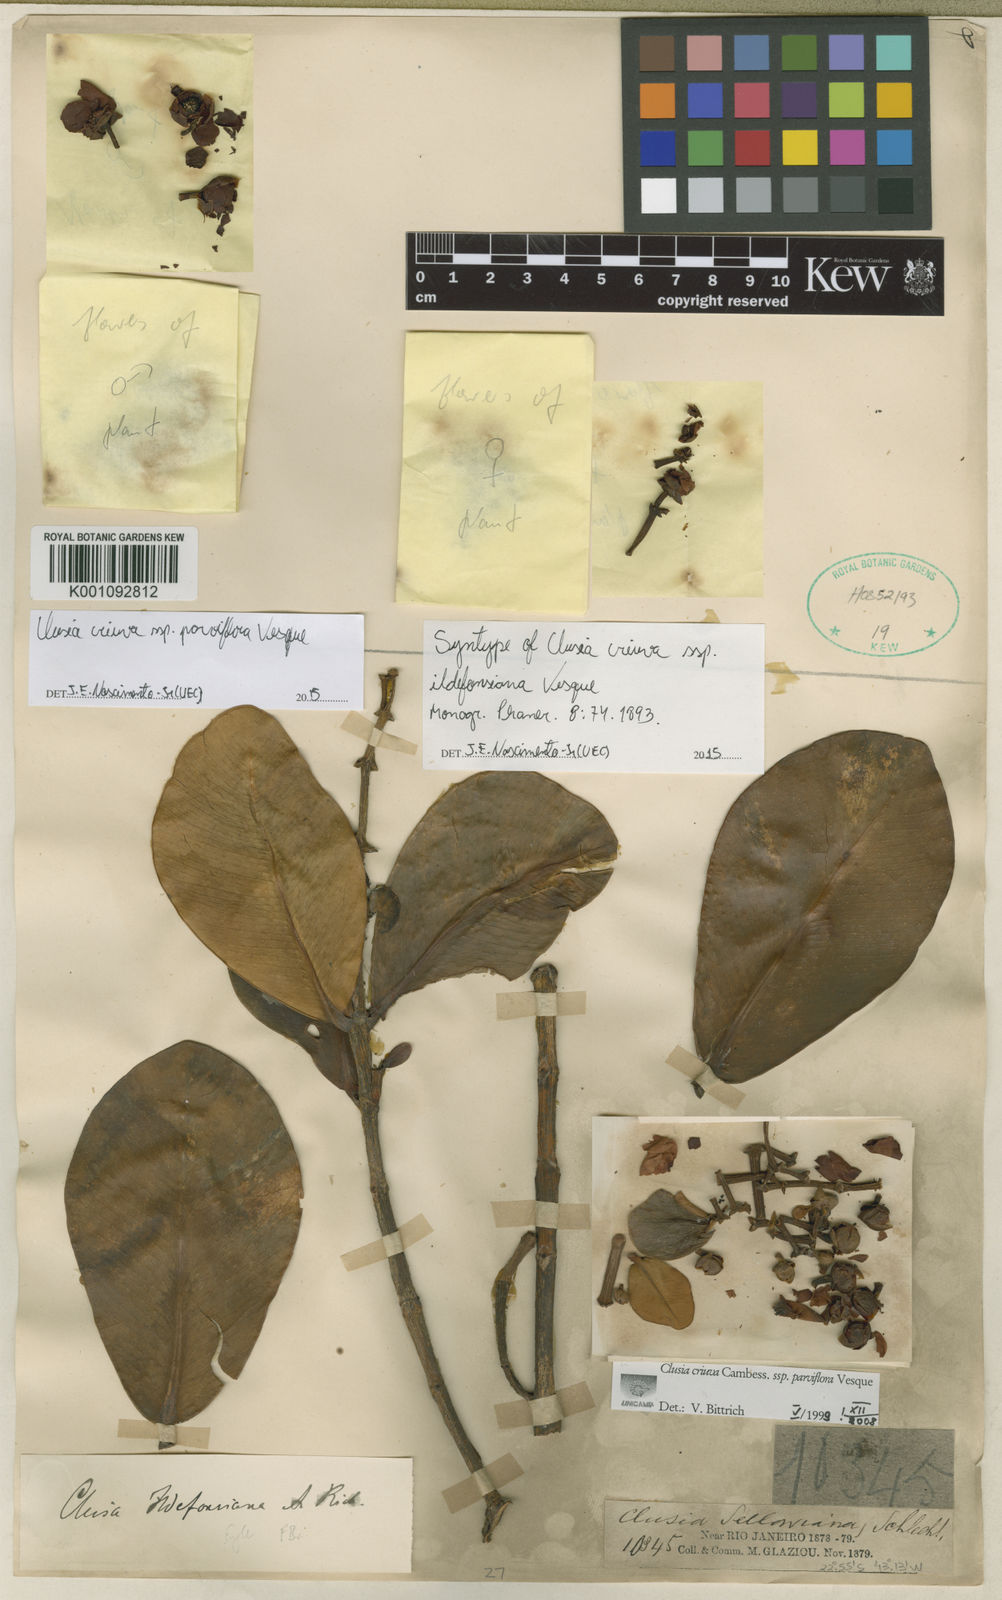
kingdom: Plantae
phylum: Tracheophyta
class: Magnoliopsida
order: Malpighiales
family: Clusiaceae
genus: Clusia
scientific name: Clusia criuva
